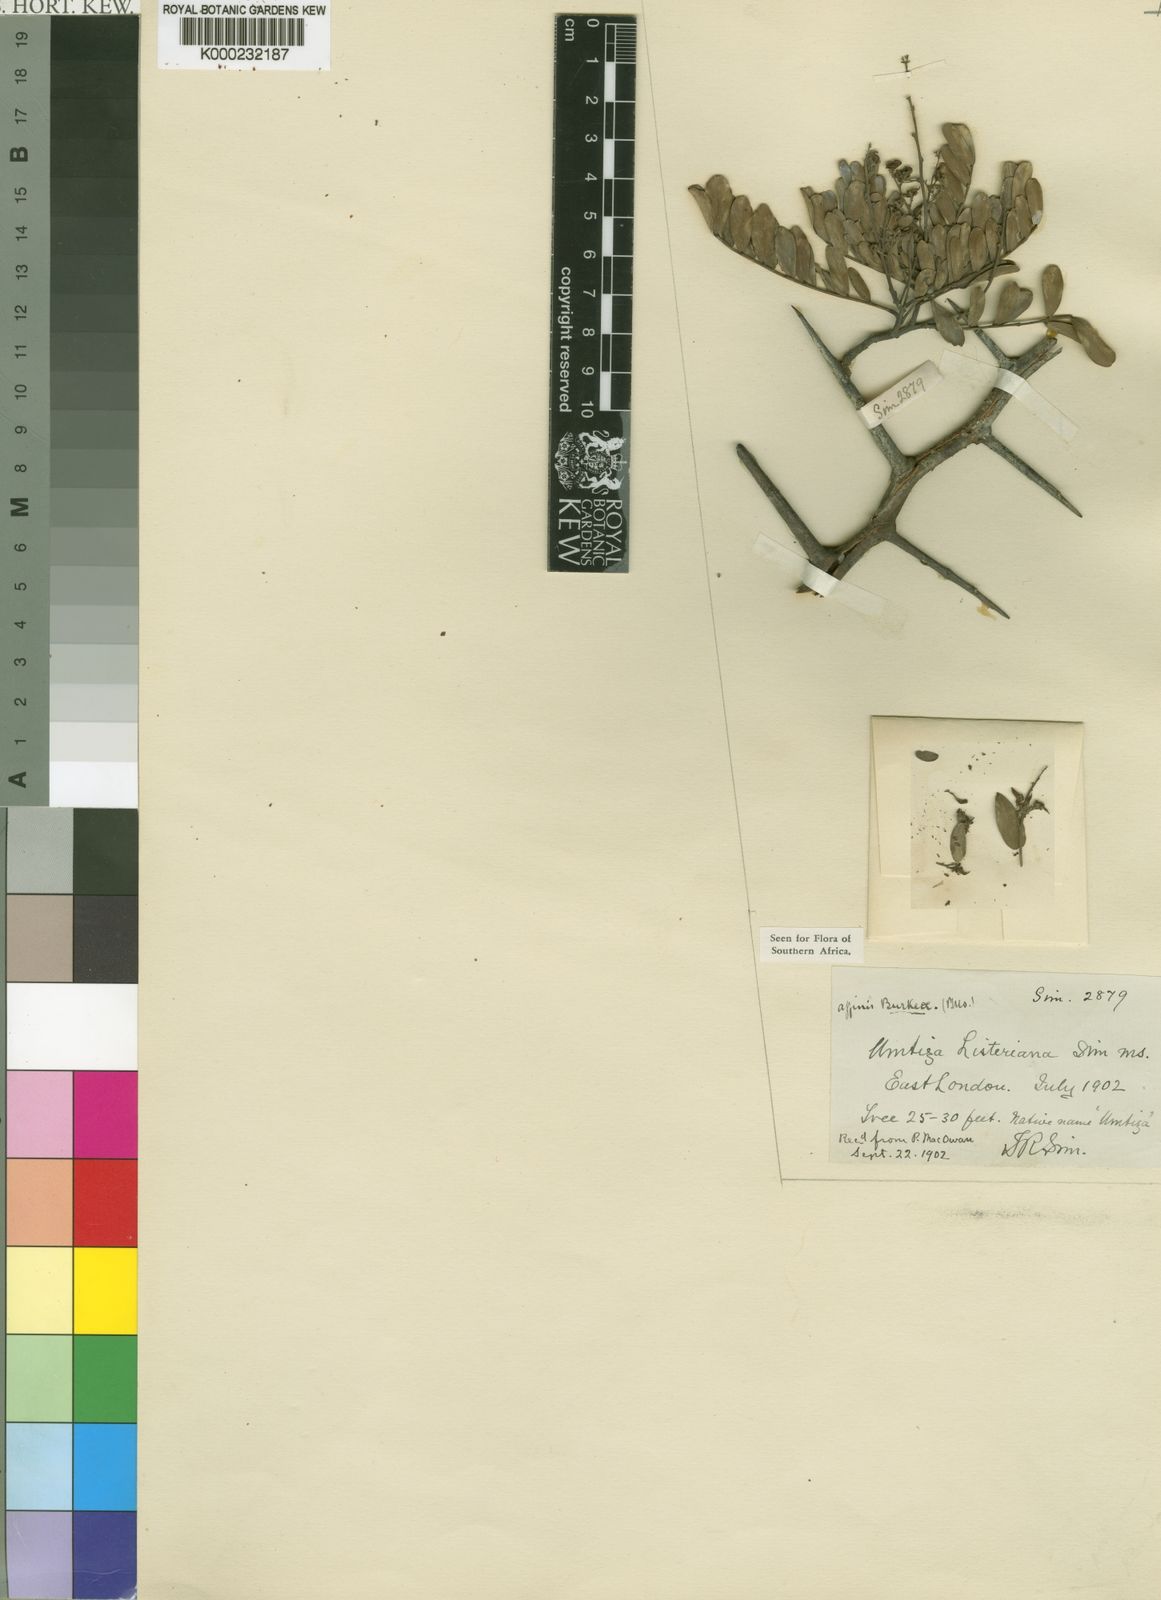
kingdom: Plantae
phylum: Tracheophyta
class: Magnoliopsida
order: Fabales
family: Fabaceae
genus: Umtiza
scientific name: Umtiza listeriana
